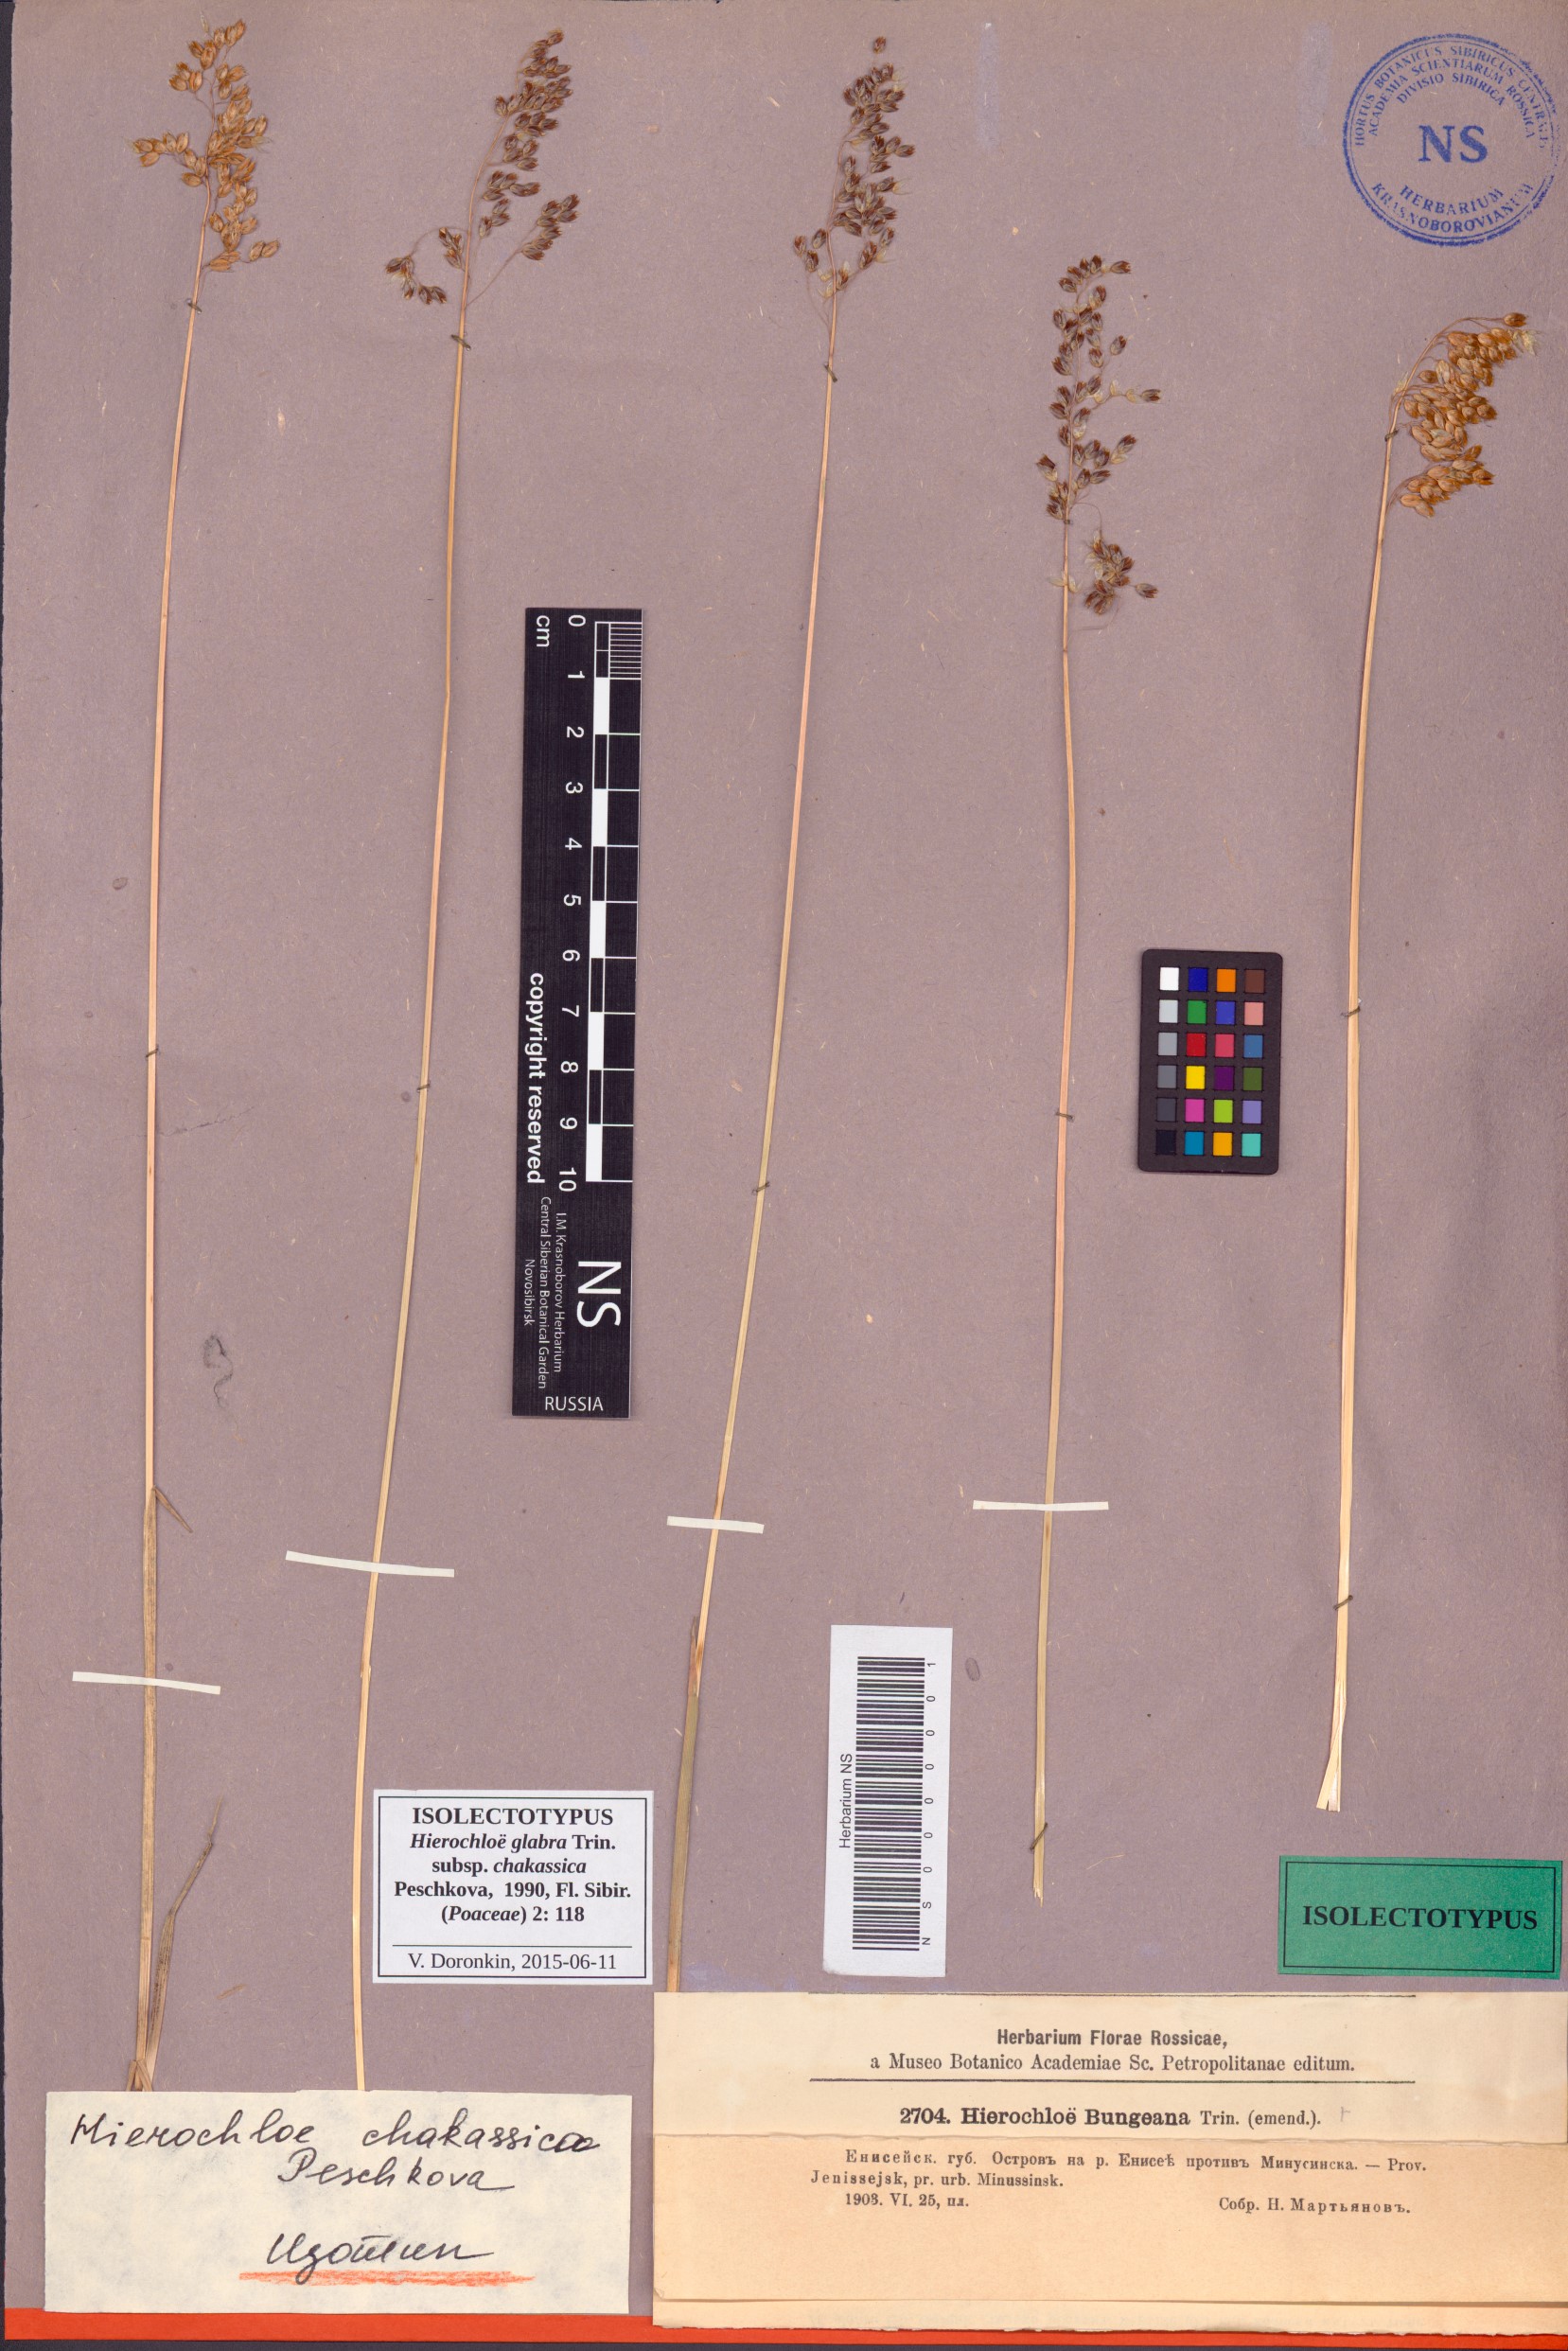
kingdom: Plantae
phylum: Tracheophyta
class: Liliopsida
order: Poales
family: Poaceae
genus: Anthoxanthum
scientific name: Anthoxanthum glabrum
